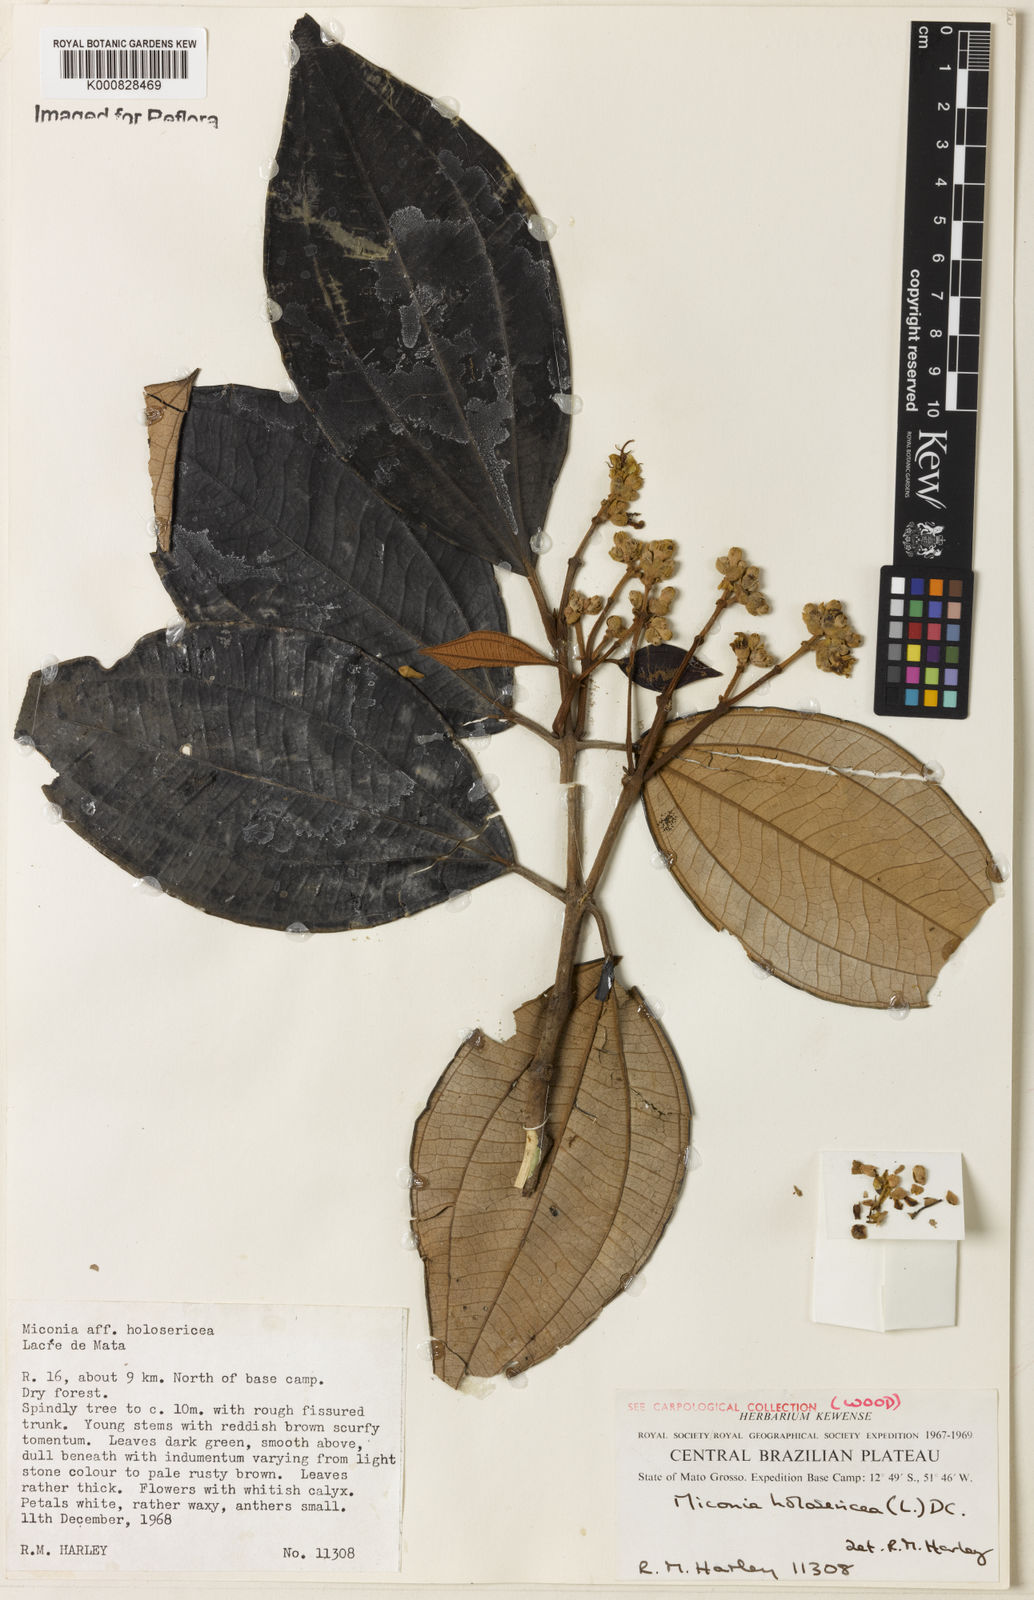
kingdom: Plantae
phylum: Tracheophyta
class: Magnoliopsida
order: Myrtales
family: Melastomataceae
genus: Miconia
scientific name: Miconia holosericea
